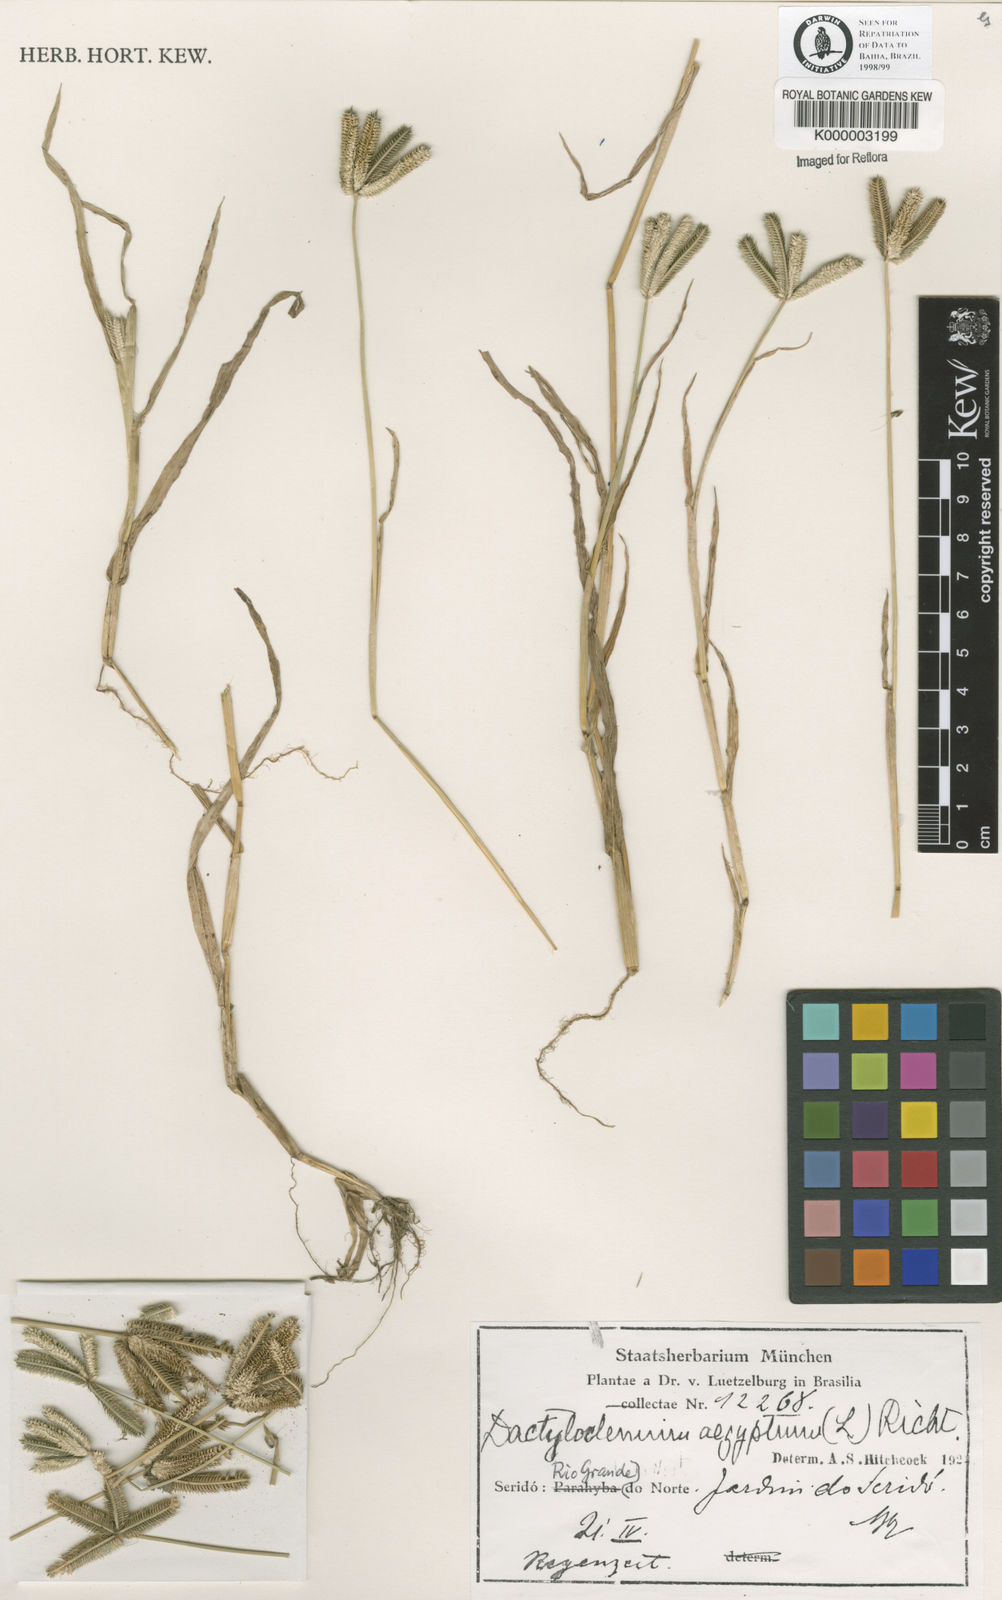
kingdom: Plantae
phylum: Tracheophyta
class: Liliopsida
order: Poales
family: Poaceae
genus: Dactyloctenium
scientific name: Dactyloctenium aegyptium
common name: Egyptian grass
